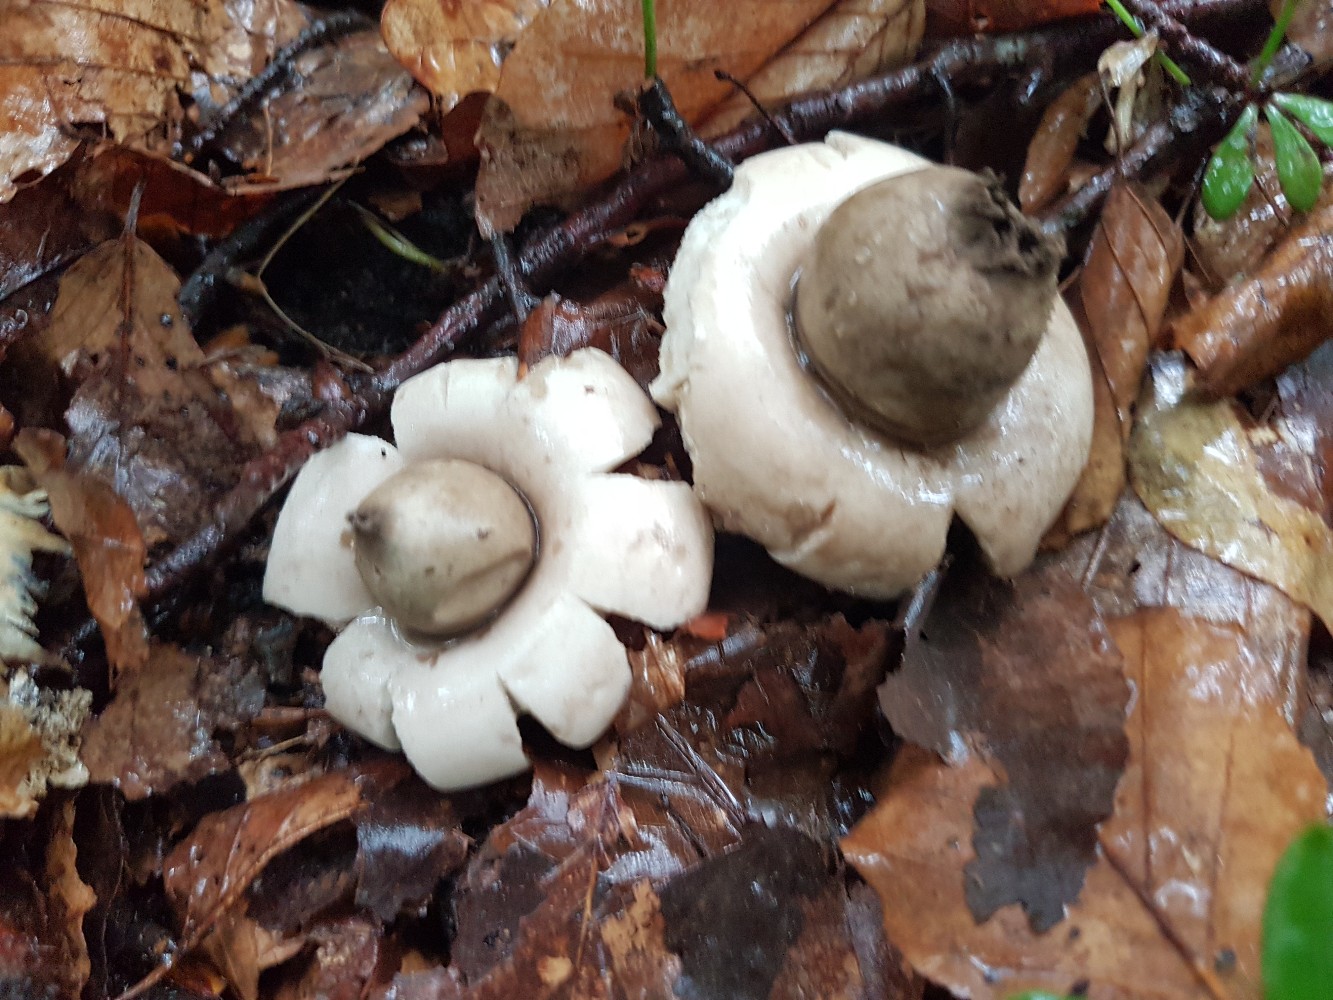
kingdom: Fungi
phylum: Basidiomycota
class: Agaricomycetes
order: Geastrales
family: Geastraceae
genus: Geastrum
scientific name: Geastrum fimbriatum
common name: frynset stjernebold
